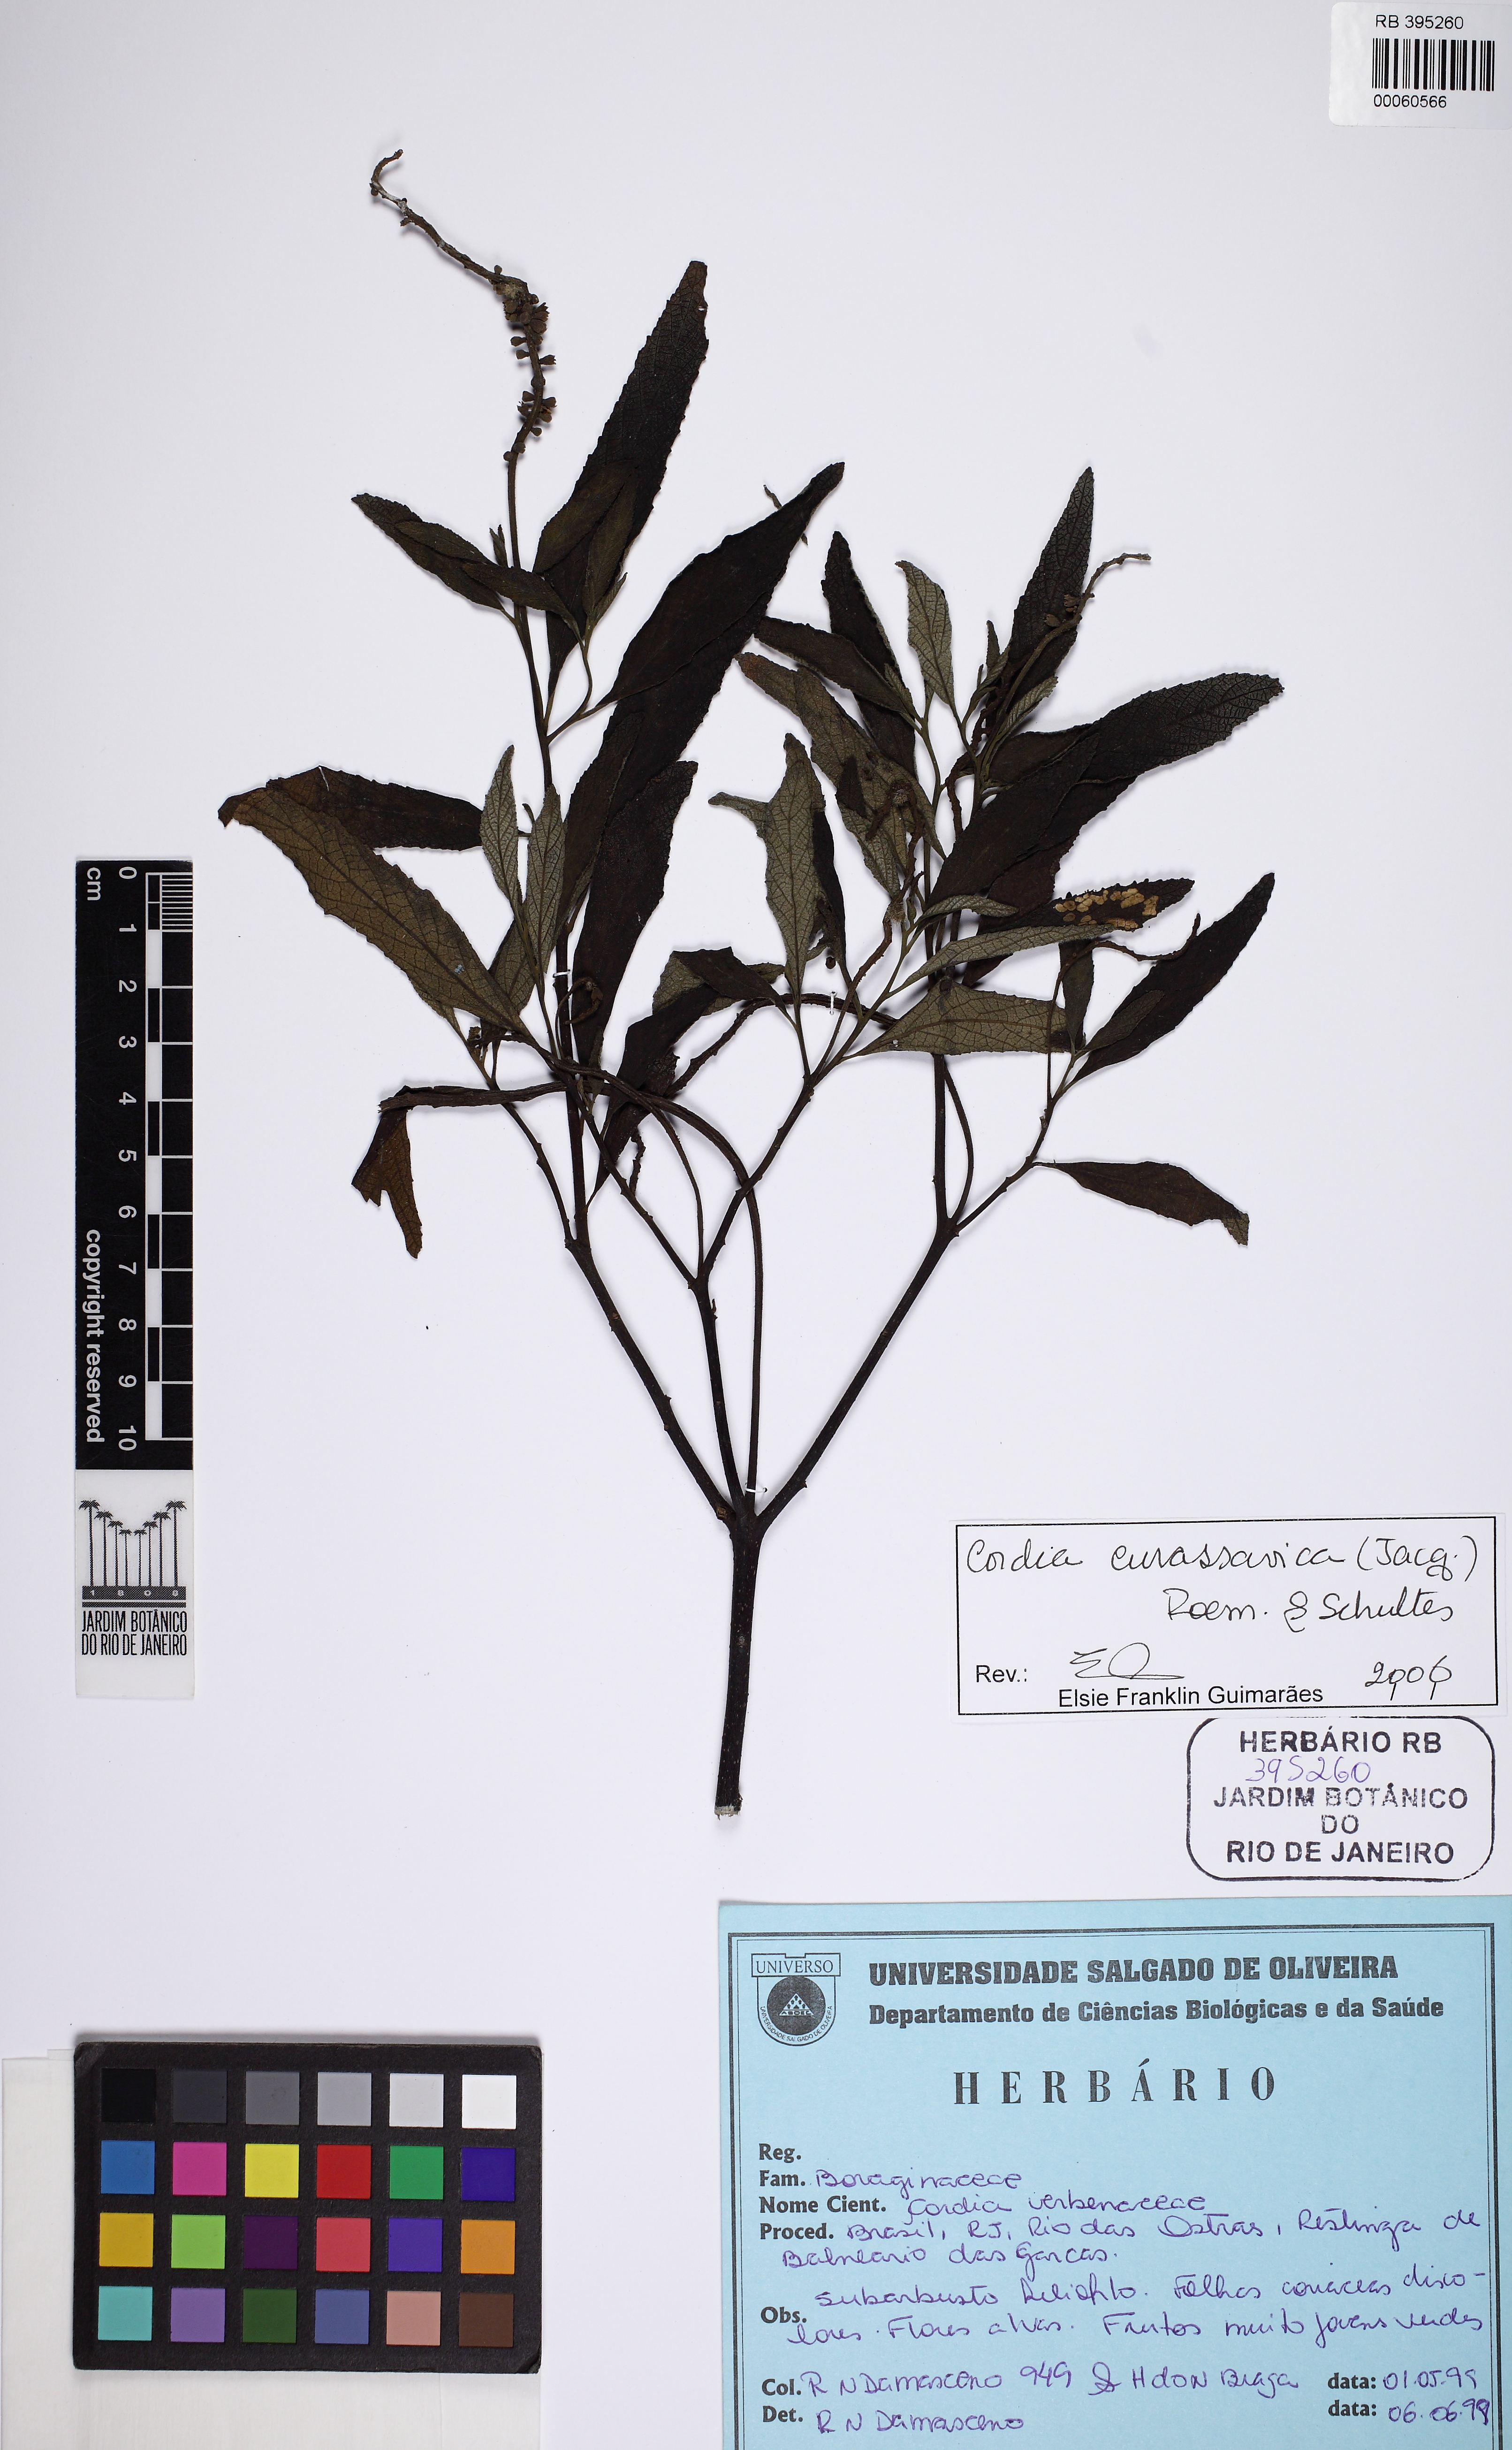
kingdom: Plantae
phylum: Tracheophyta
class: Magnoliopsida
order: Boraginales
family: Cordiaceae
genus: Varronia
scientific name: Varronia curassavica
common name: Black sage
